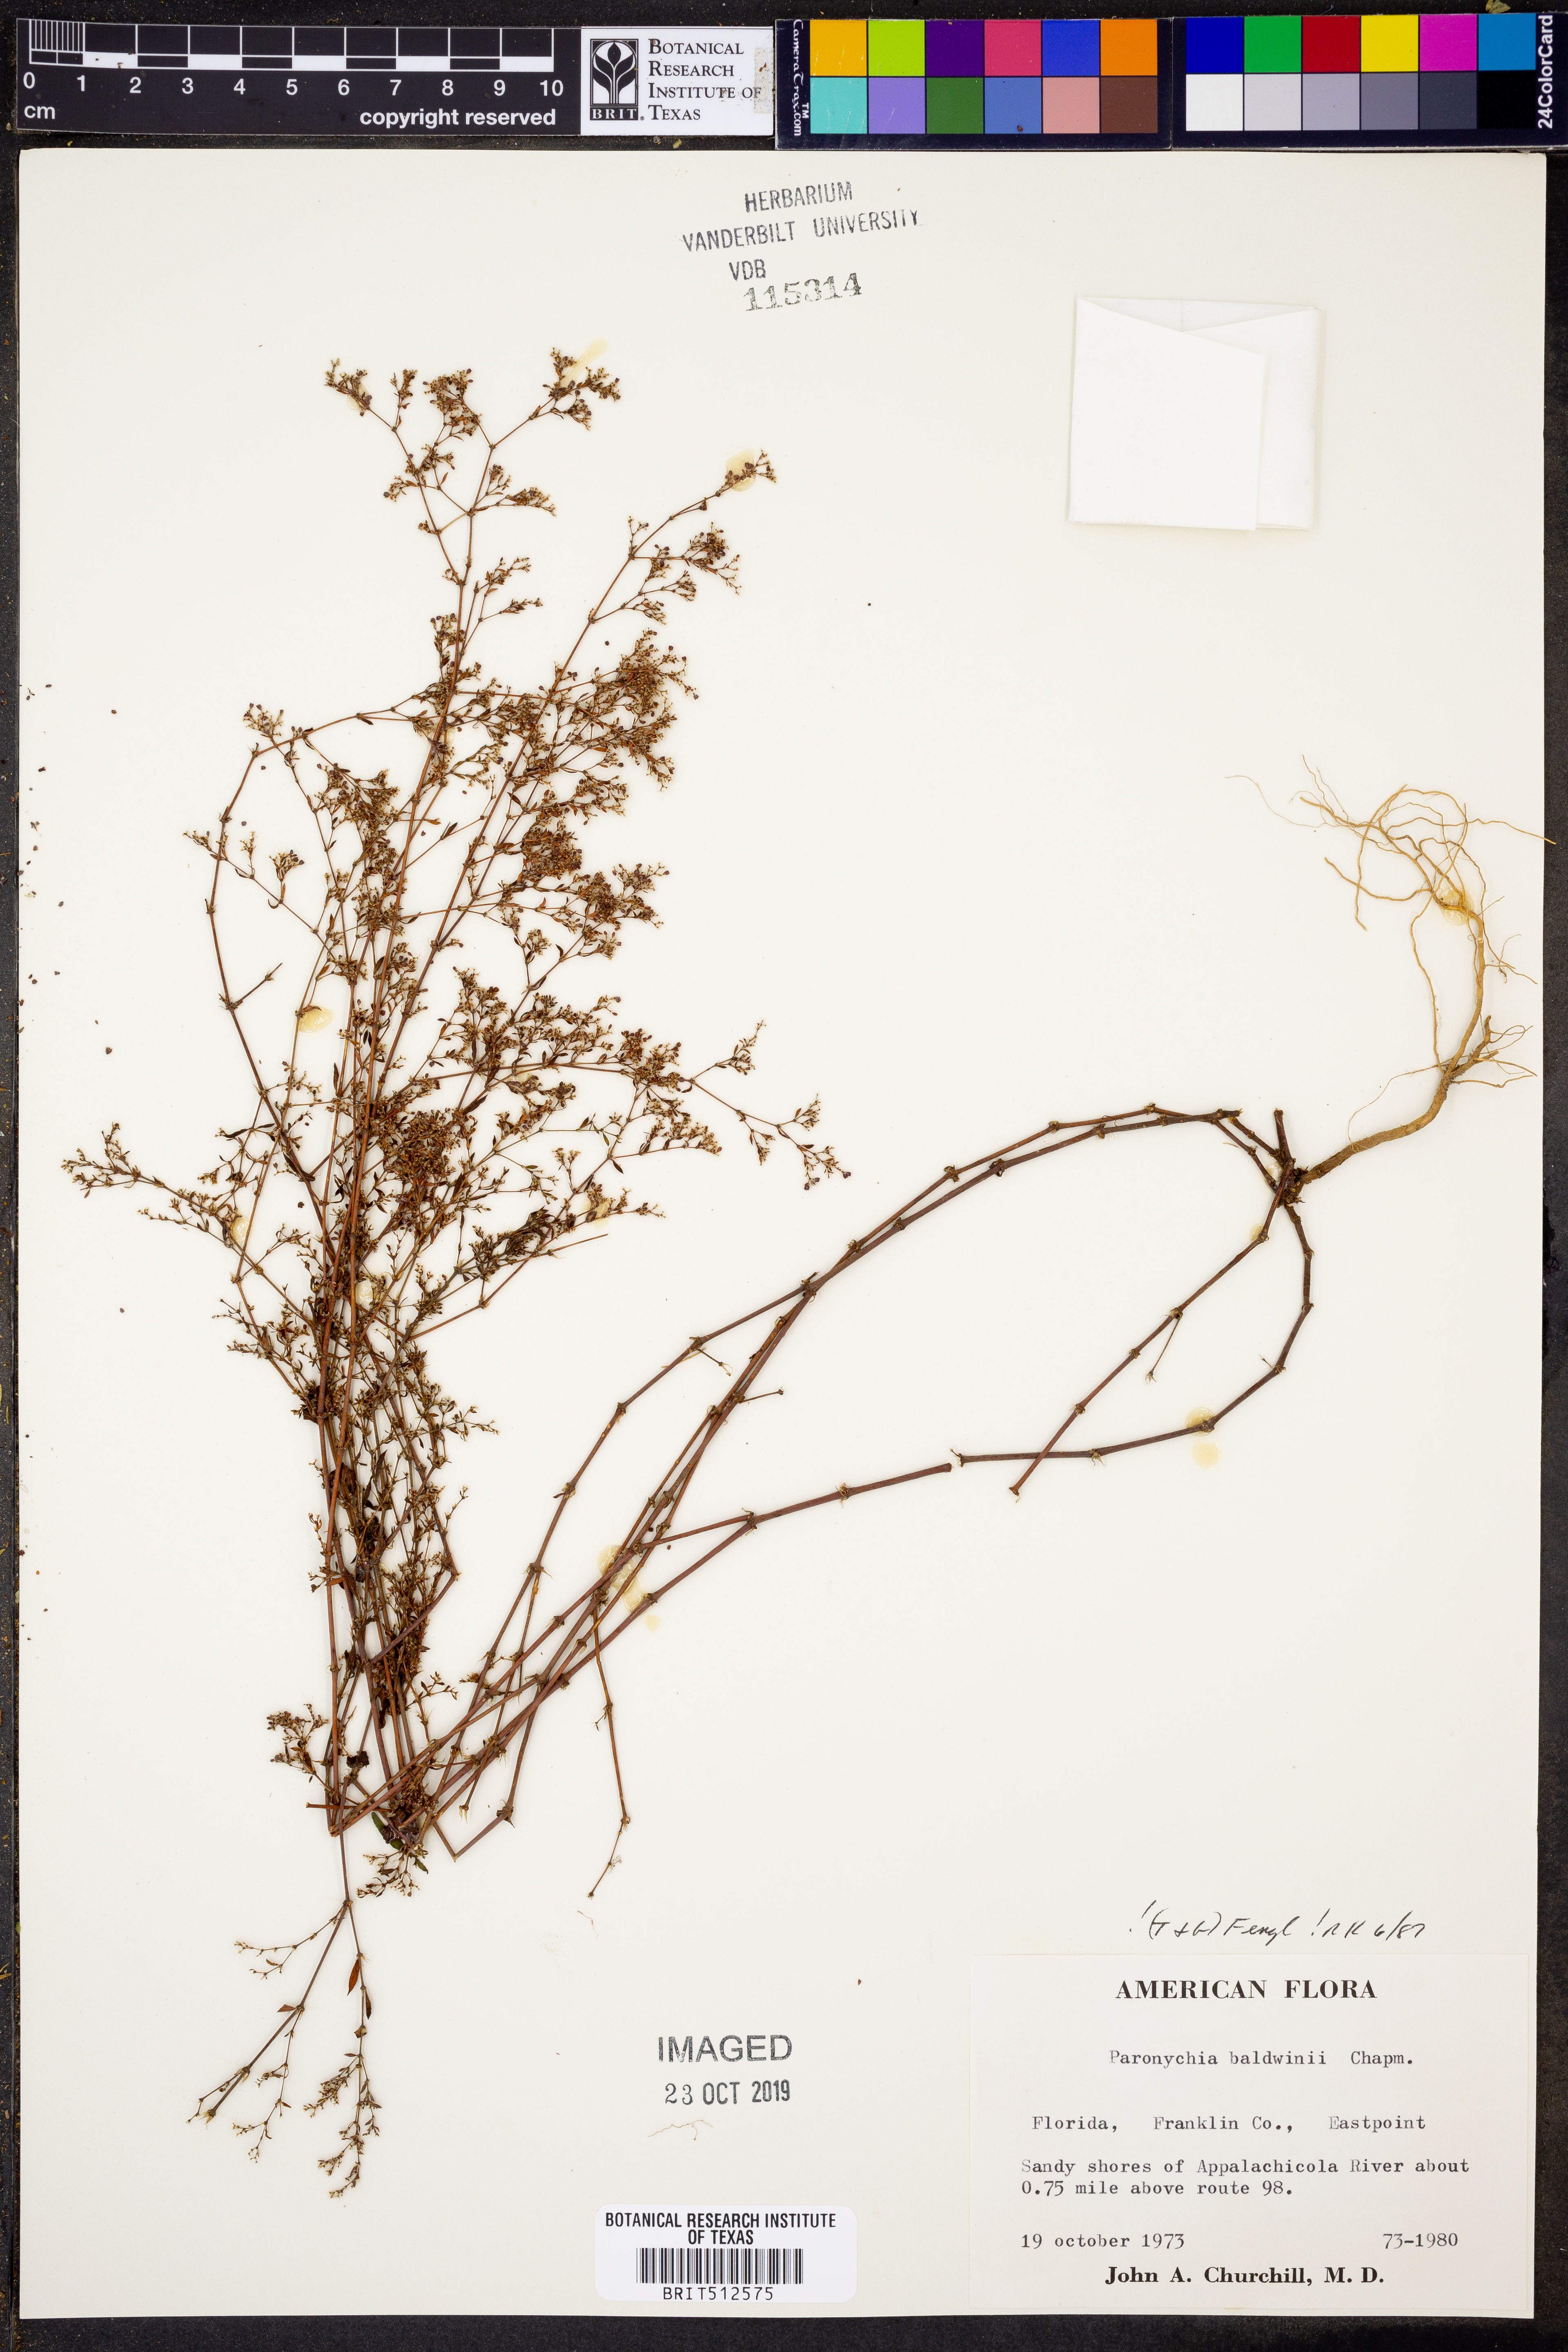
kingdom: Plantae
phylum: Tracheophyta
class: Magnoliopsida
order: Caryophyllales
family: Caryophyllaceae
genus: Paronychia
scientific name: Paronychia baldwinii
